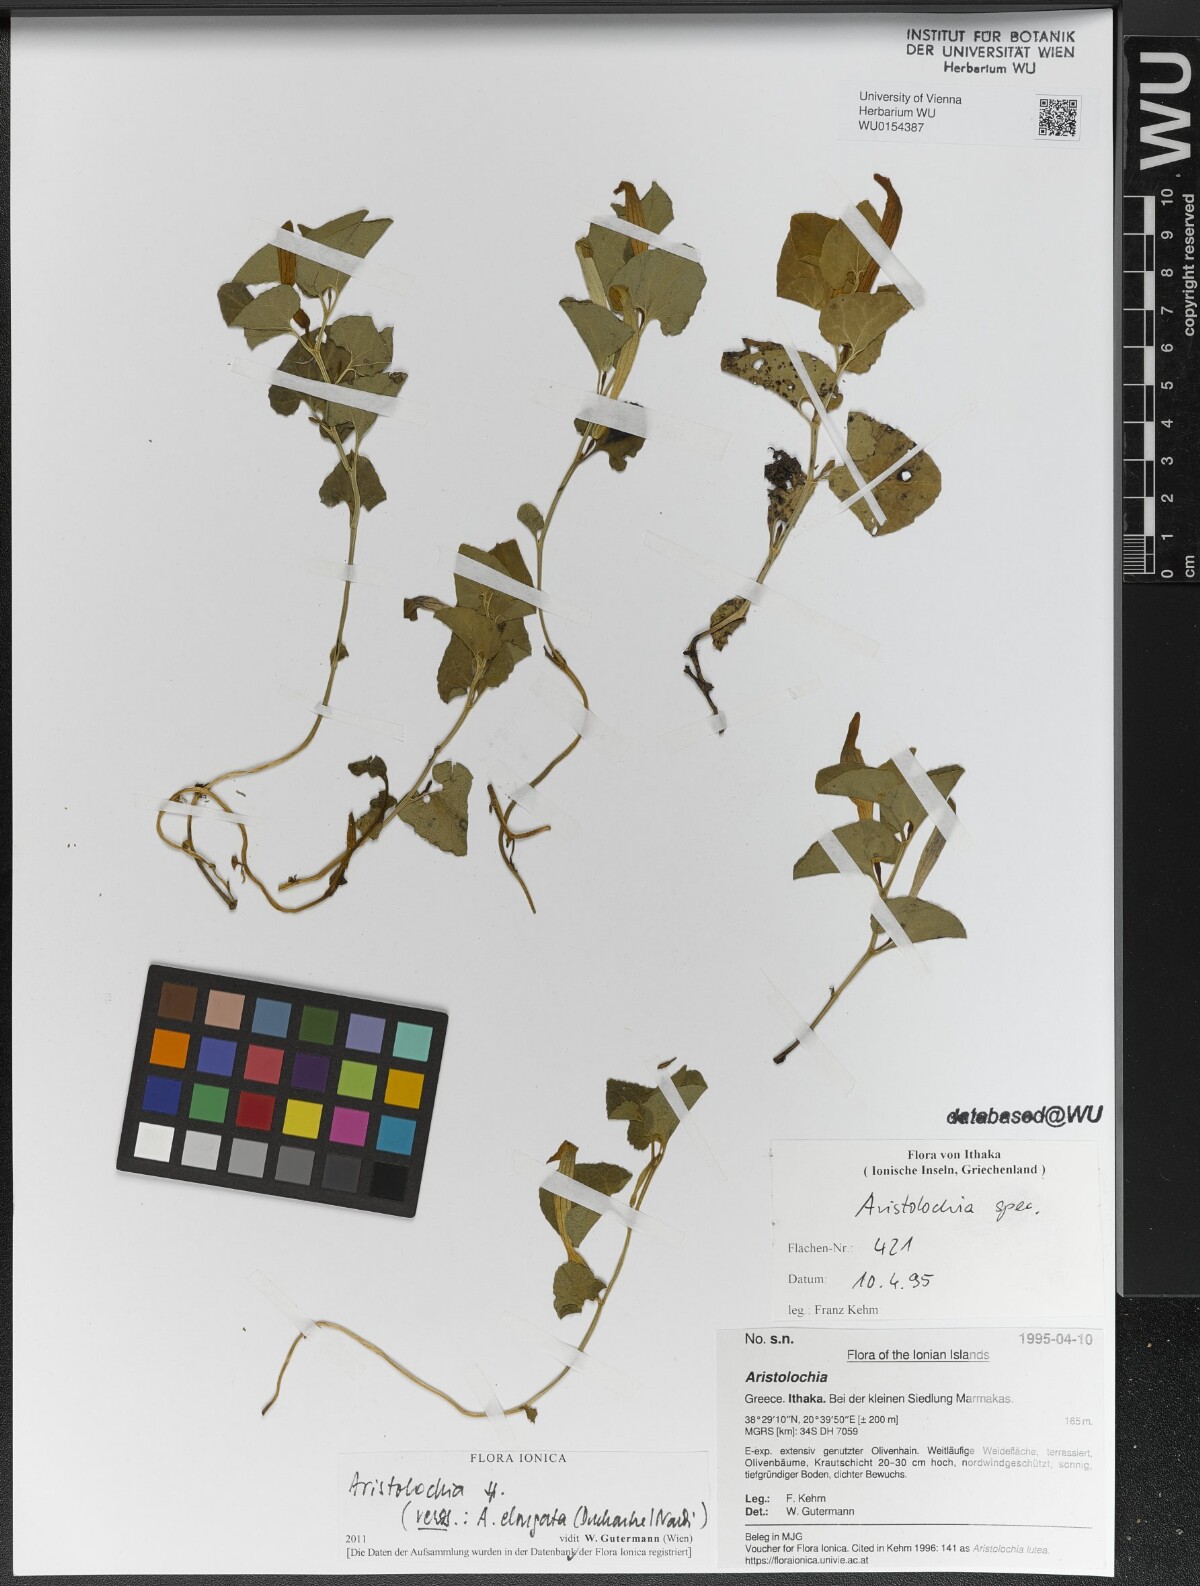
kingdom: Plantae
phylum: Tracheophyta
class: Magnoliopsida
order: Piperales
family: Aristolochiaceae
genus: Aristolochia
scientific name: Aristolochia
